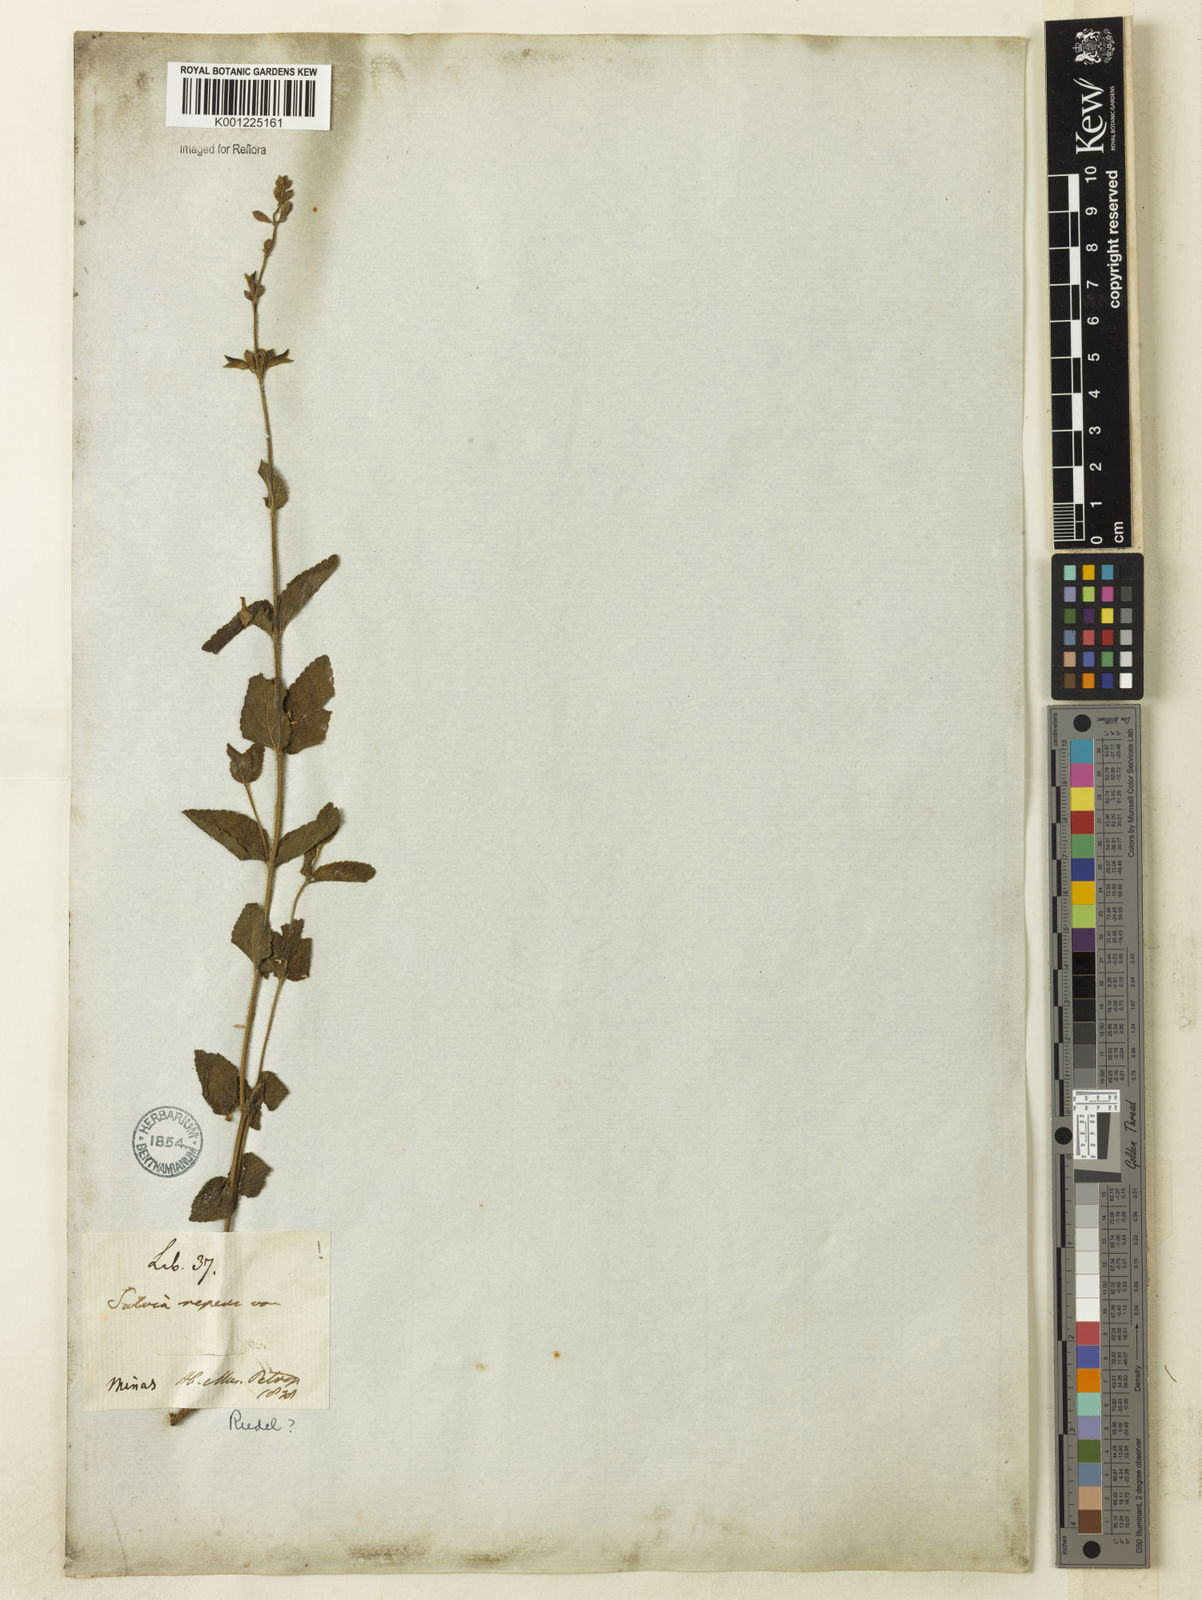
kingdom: Plantae
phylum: Tracheophyta
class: Magnoliopsida
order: Lamiales
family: Lamiaceae
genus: Salvia
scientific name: Salvia brevipes
